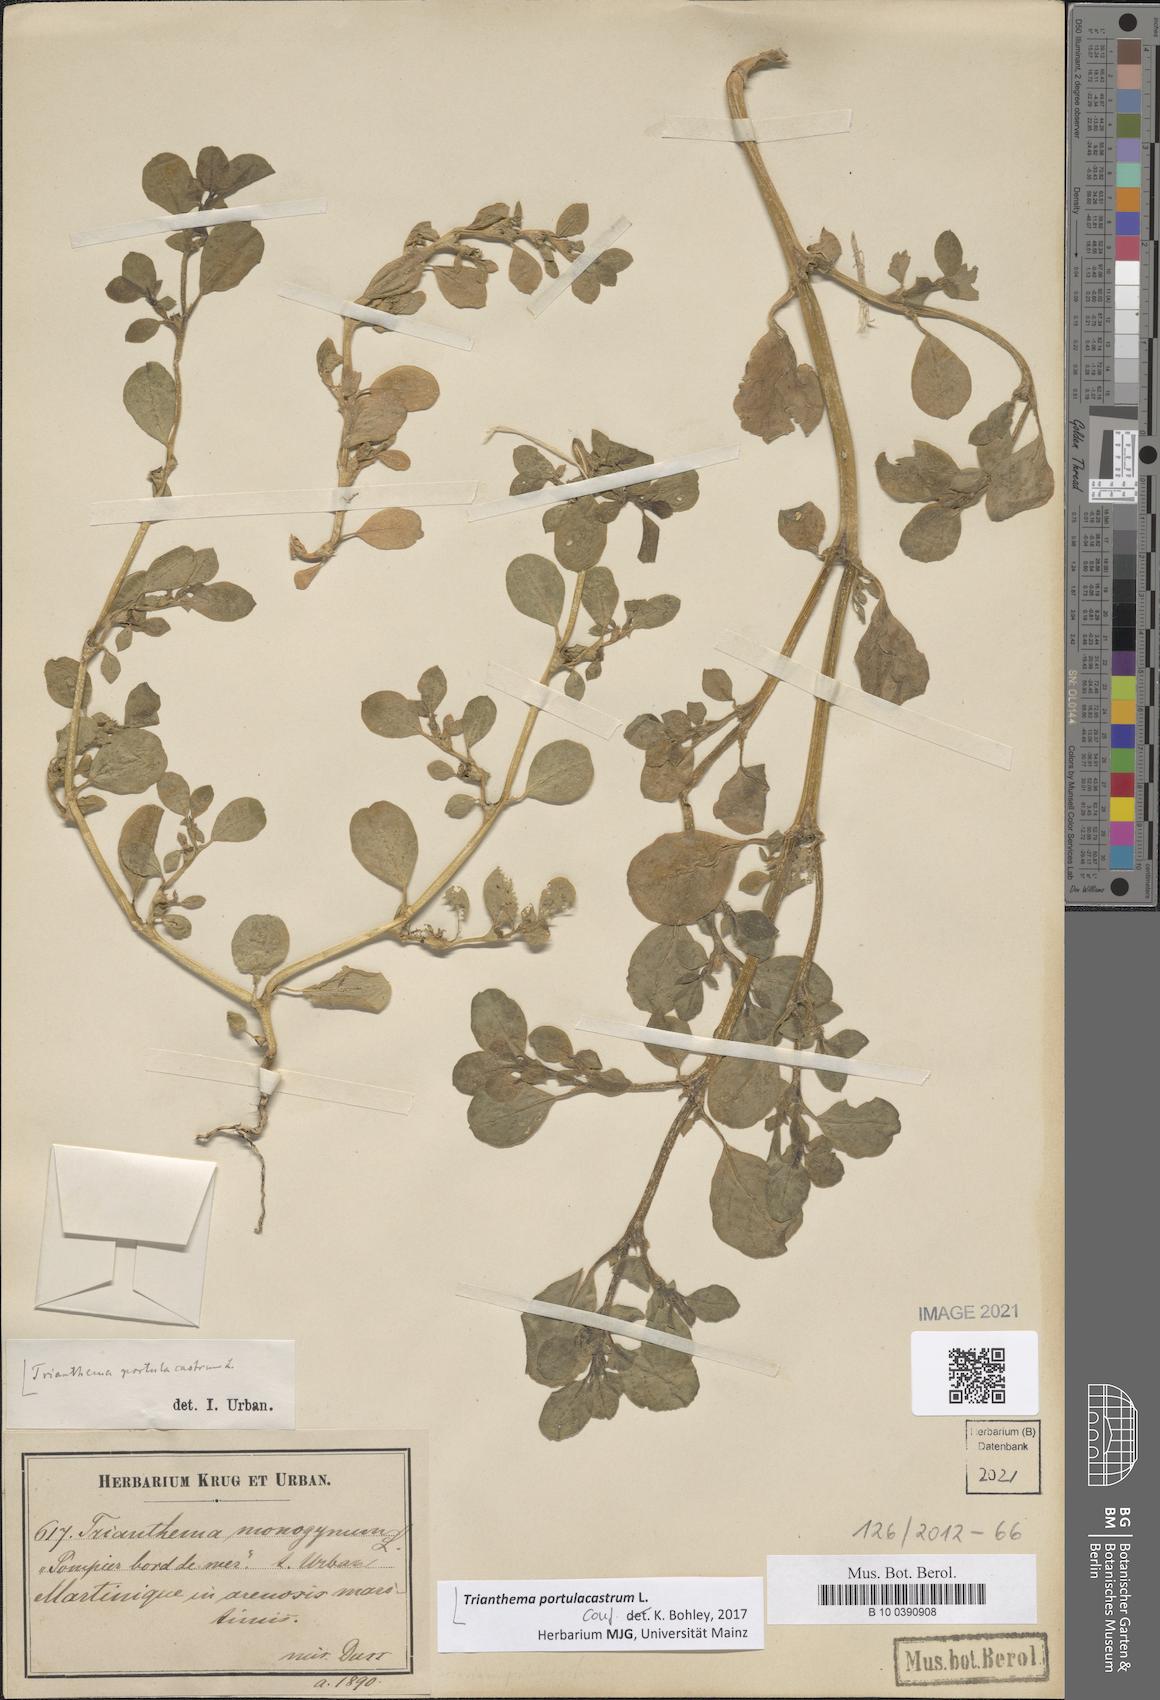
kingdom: Plantae
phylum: Tracheophyta
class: Magnoliopsida
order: Caryophyllales
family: Aizoaceae
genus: Trianthema
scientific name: Trianthema portulacastrum
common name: Desert horsepurslane
